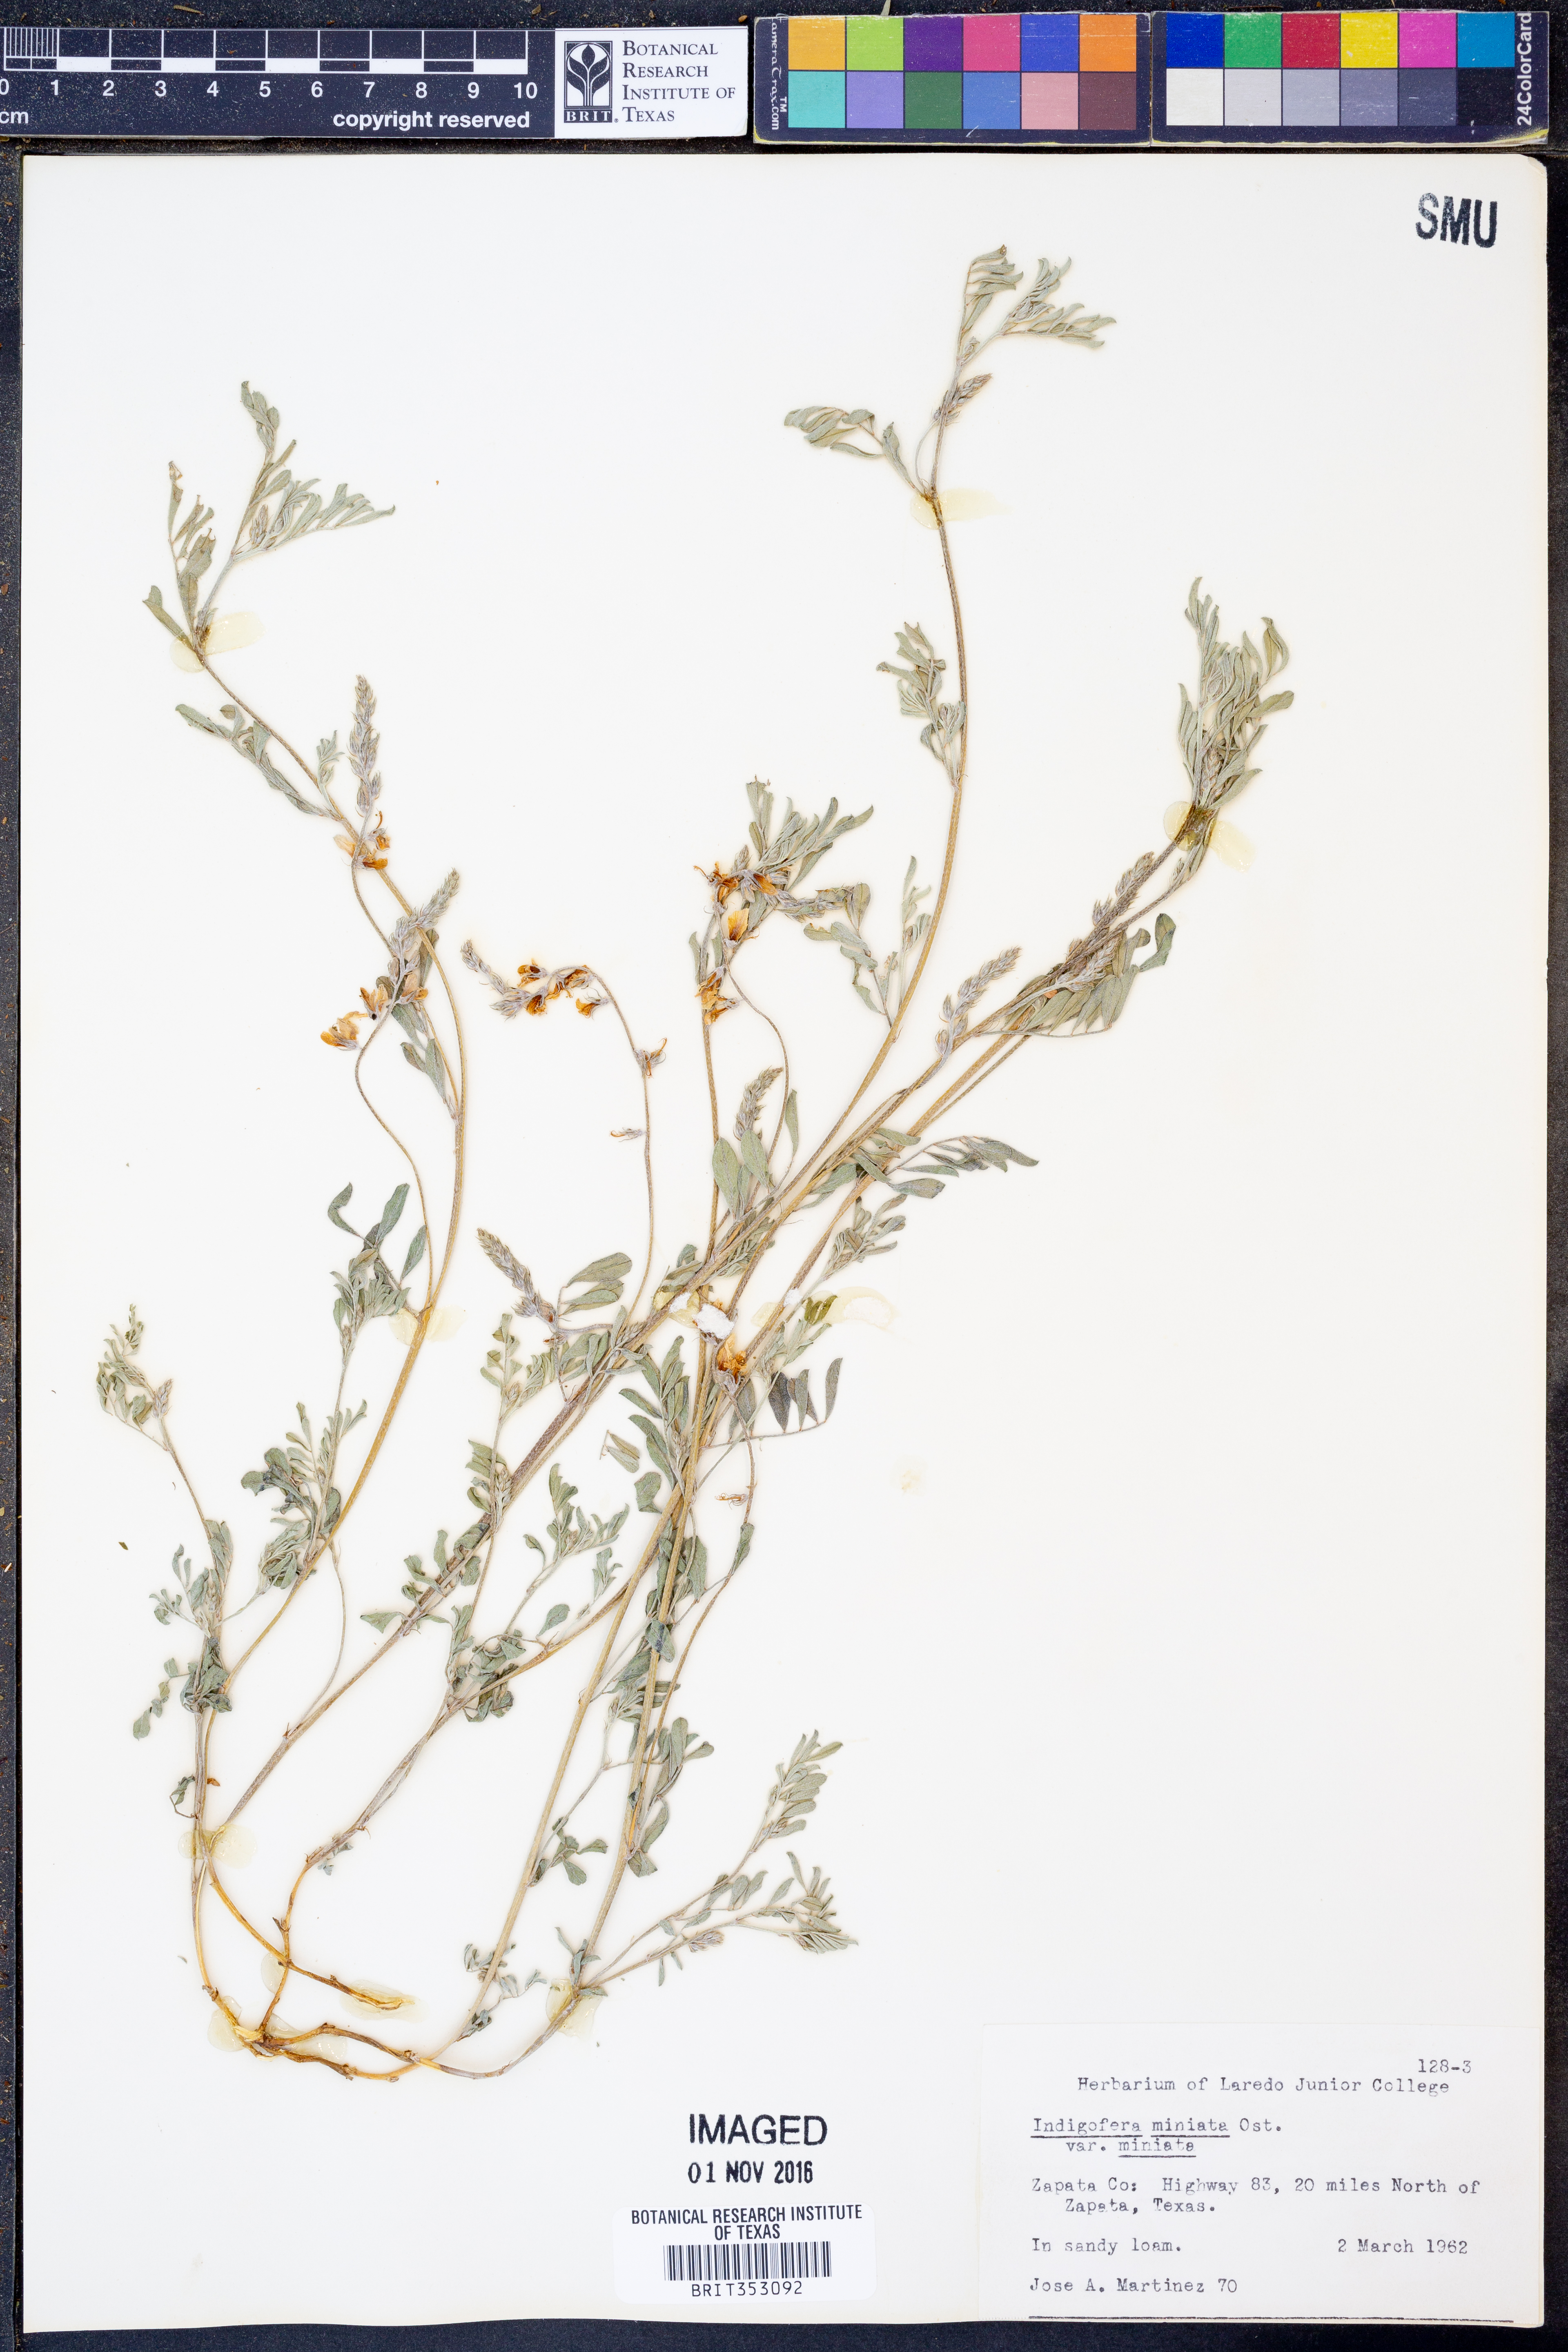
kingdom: Plantae
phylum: Tracheophyta
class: Magnoliopsida
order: Fabales
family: Fabaceae
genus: Indigofera
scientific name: Indigofera miniata
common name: Coast indigo
